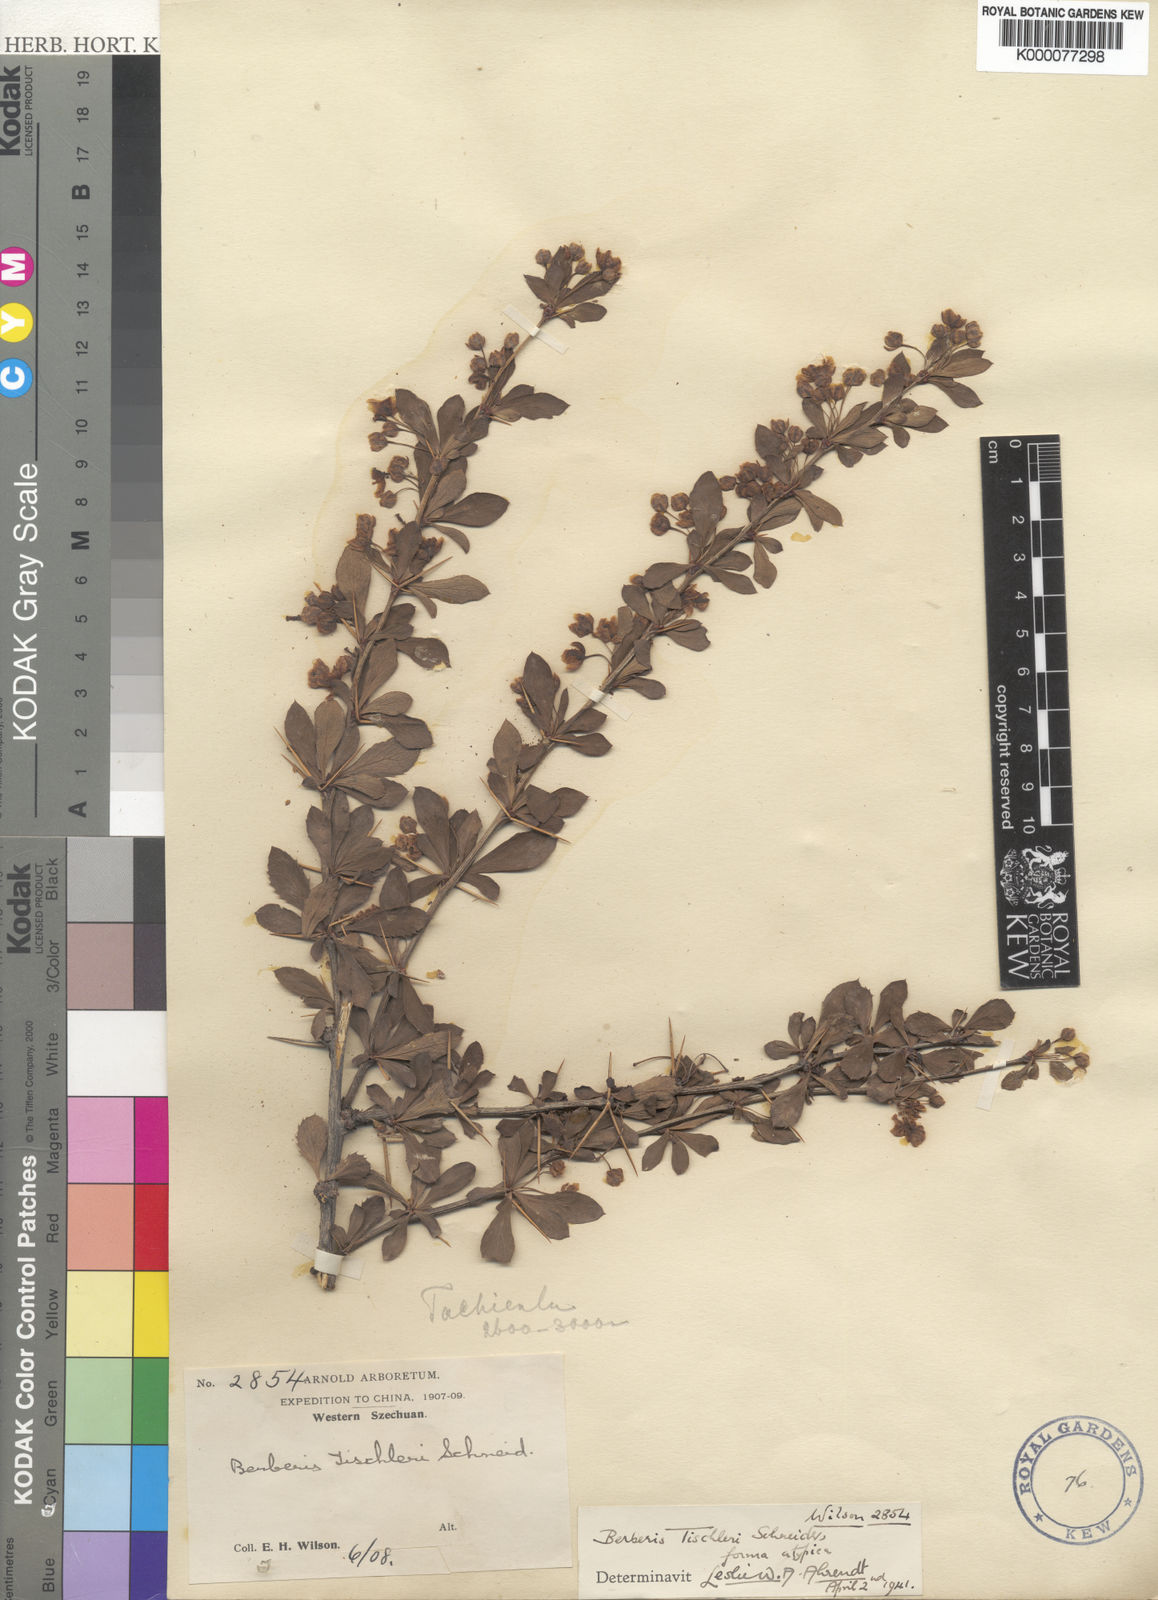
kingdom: Plantae
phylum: Tracheophyta
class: Magnoliopsida
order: Ranunculales
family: Berberidaceae
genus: Berberis
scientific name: Berberis tischleri
